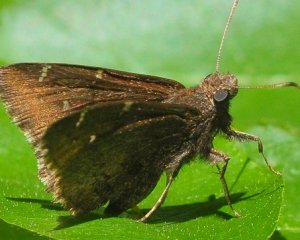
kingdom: Animalia
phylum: Arthropoda
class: Insecta
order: Lepidoptera
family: Hesperiidae
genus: Autochton
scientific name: Autochton
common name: Northern Cloudywing
